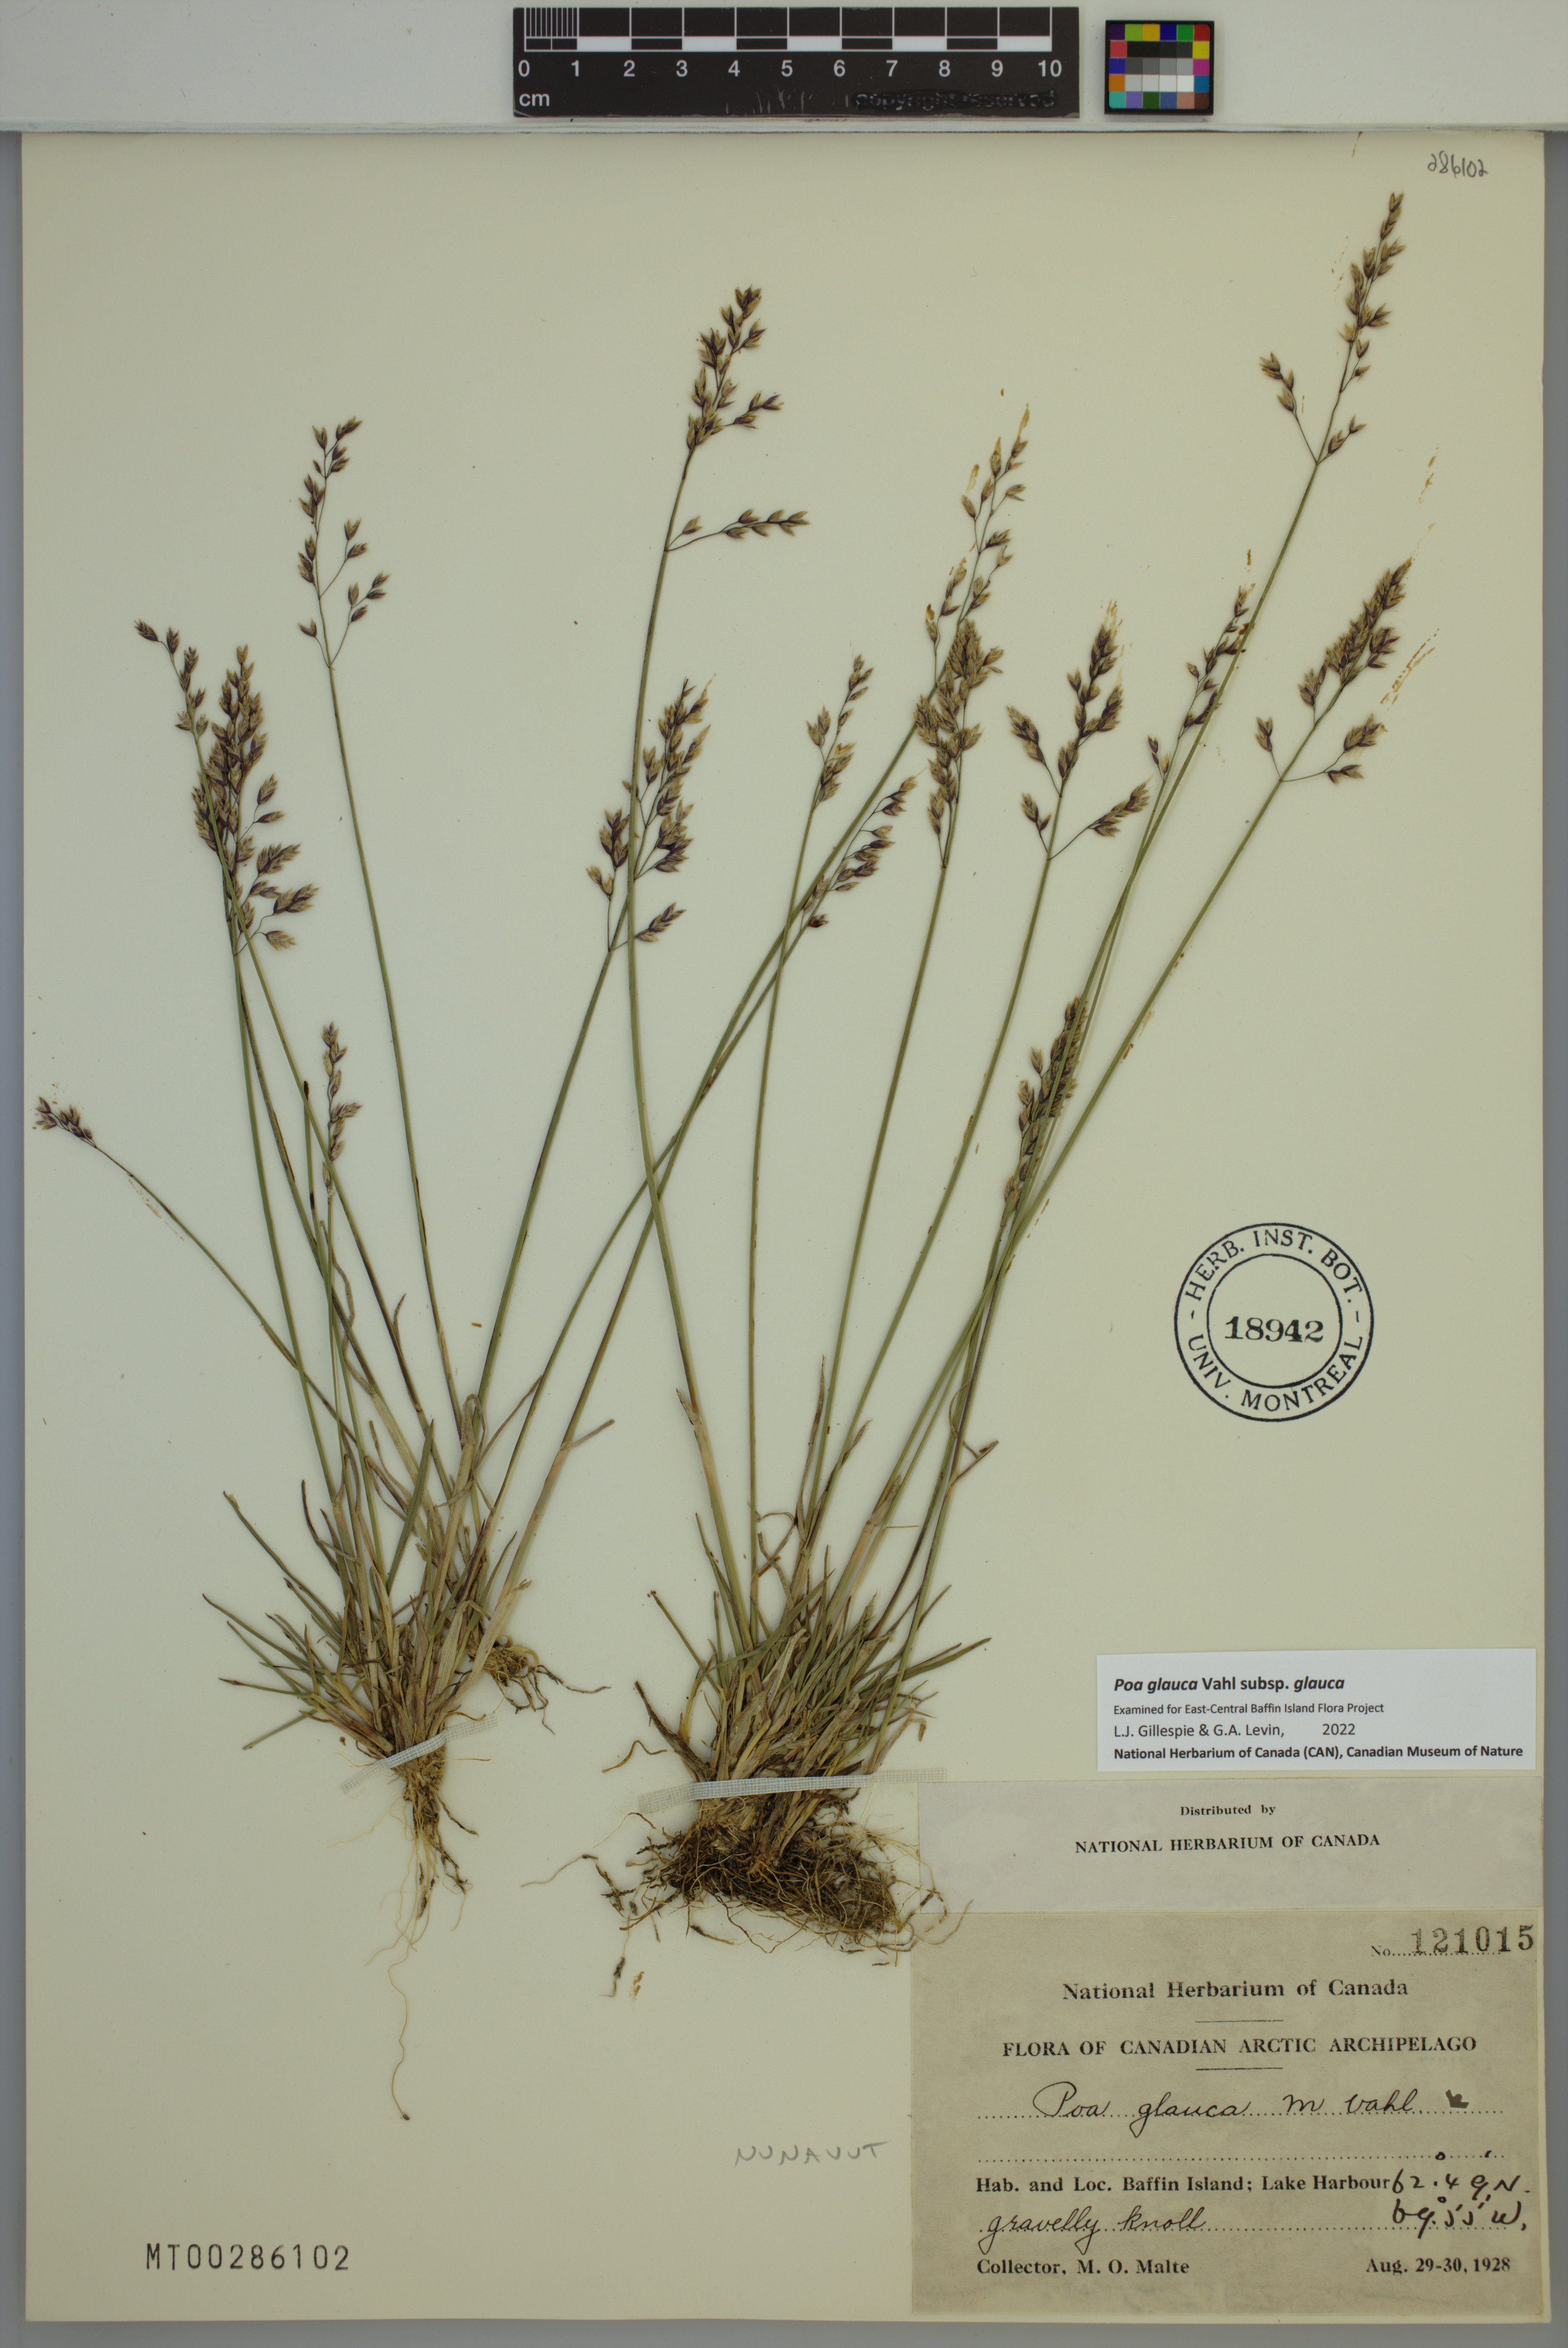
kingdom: Plantae
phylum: Tracheophyta
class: Liliopsida
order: Poales
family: Poaceae
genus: Poa
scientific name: Poa glauca
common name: Glaucous bluegrass
